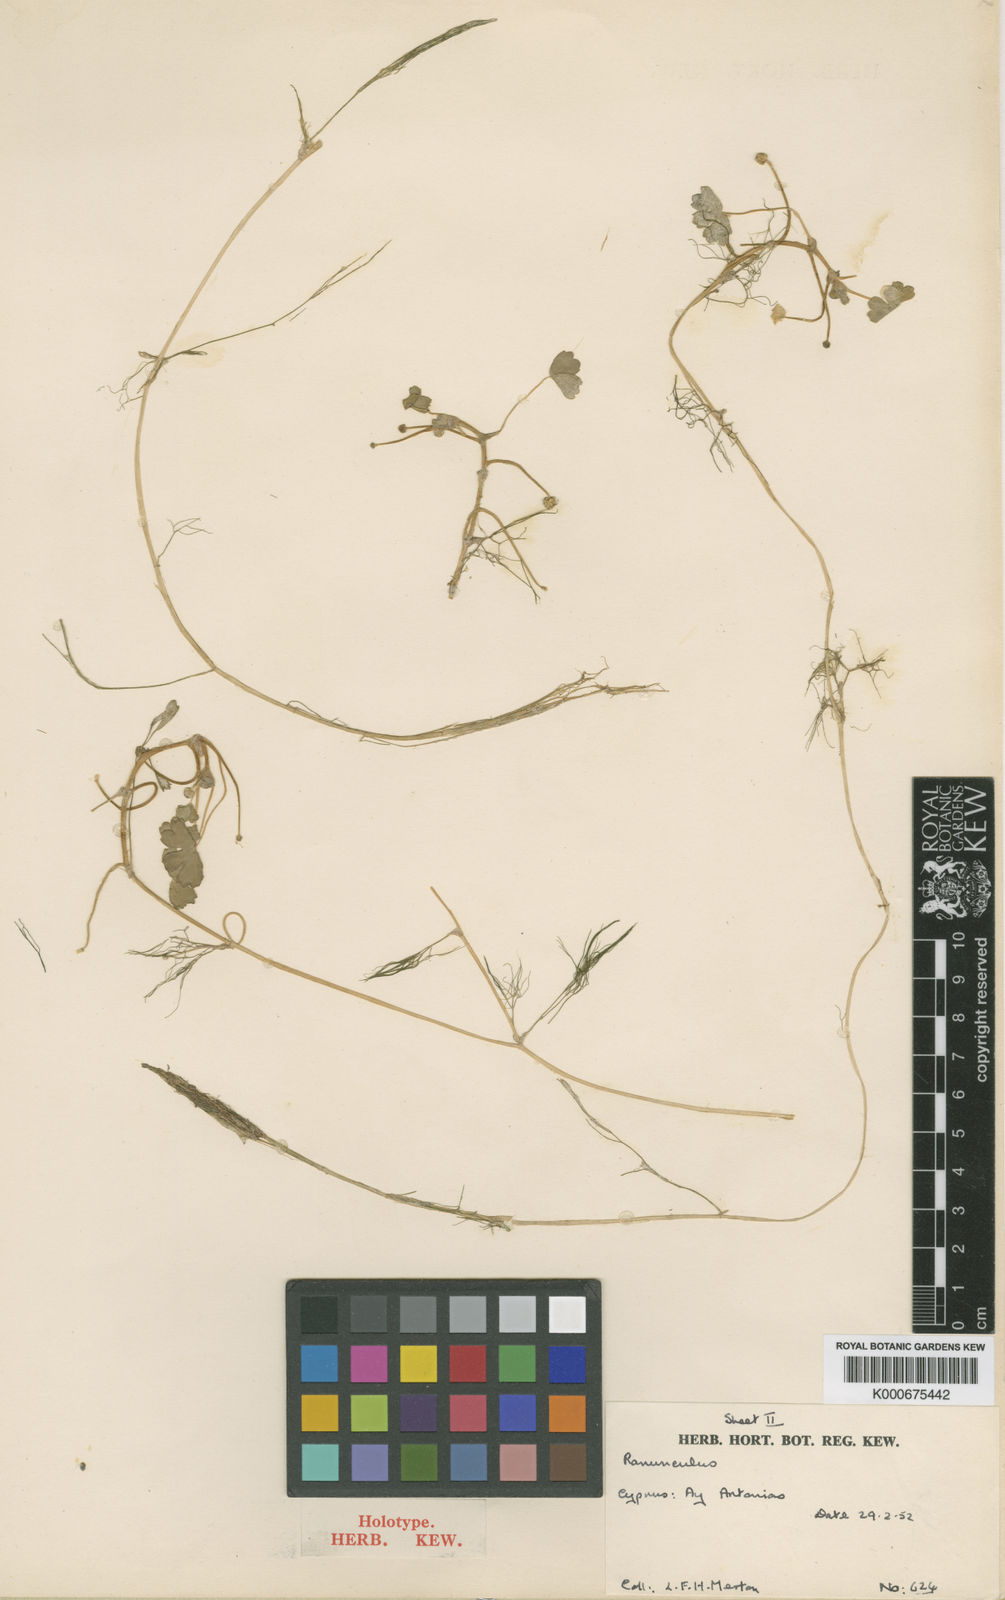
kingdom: Plantae
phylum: Tracheophyta
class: Magnoliopsida
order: Ranunculales
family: Ranunculaceae
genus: Ranunculus
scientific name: Ranunculus peltatus
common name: Pond water-crowfoot
